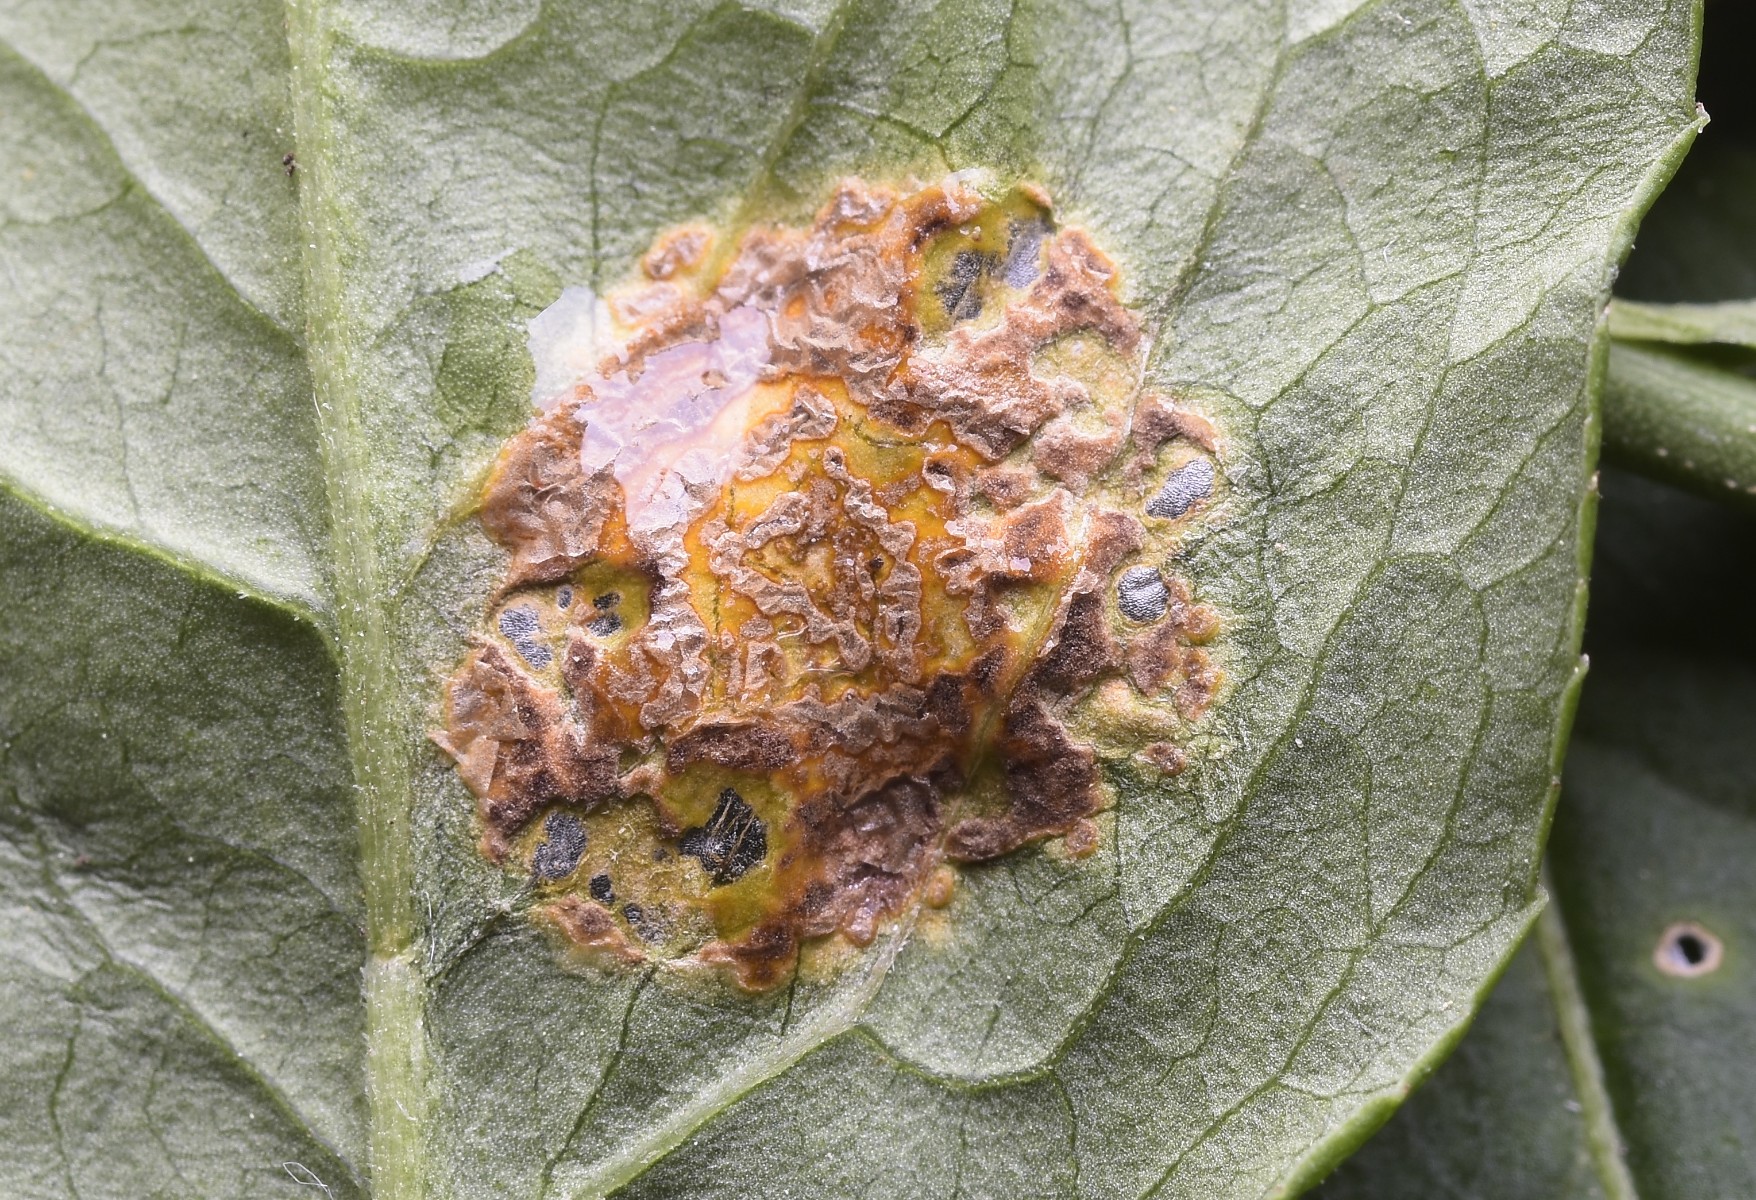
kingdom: Fungi
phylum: Basidiomycota
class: Pucciniomycetes
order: Pucciniales
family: Melampsoraceae
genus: Melampsora
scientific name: Melampsora epitea
